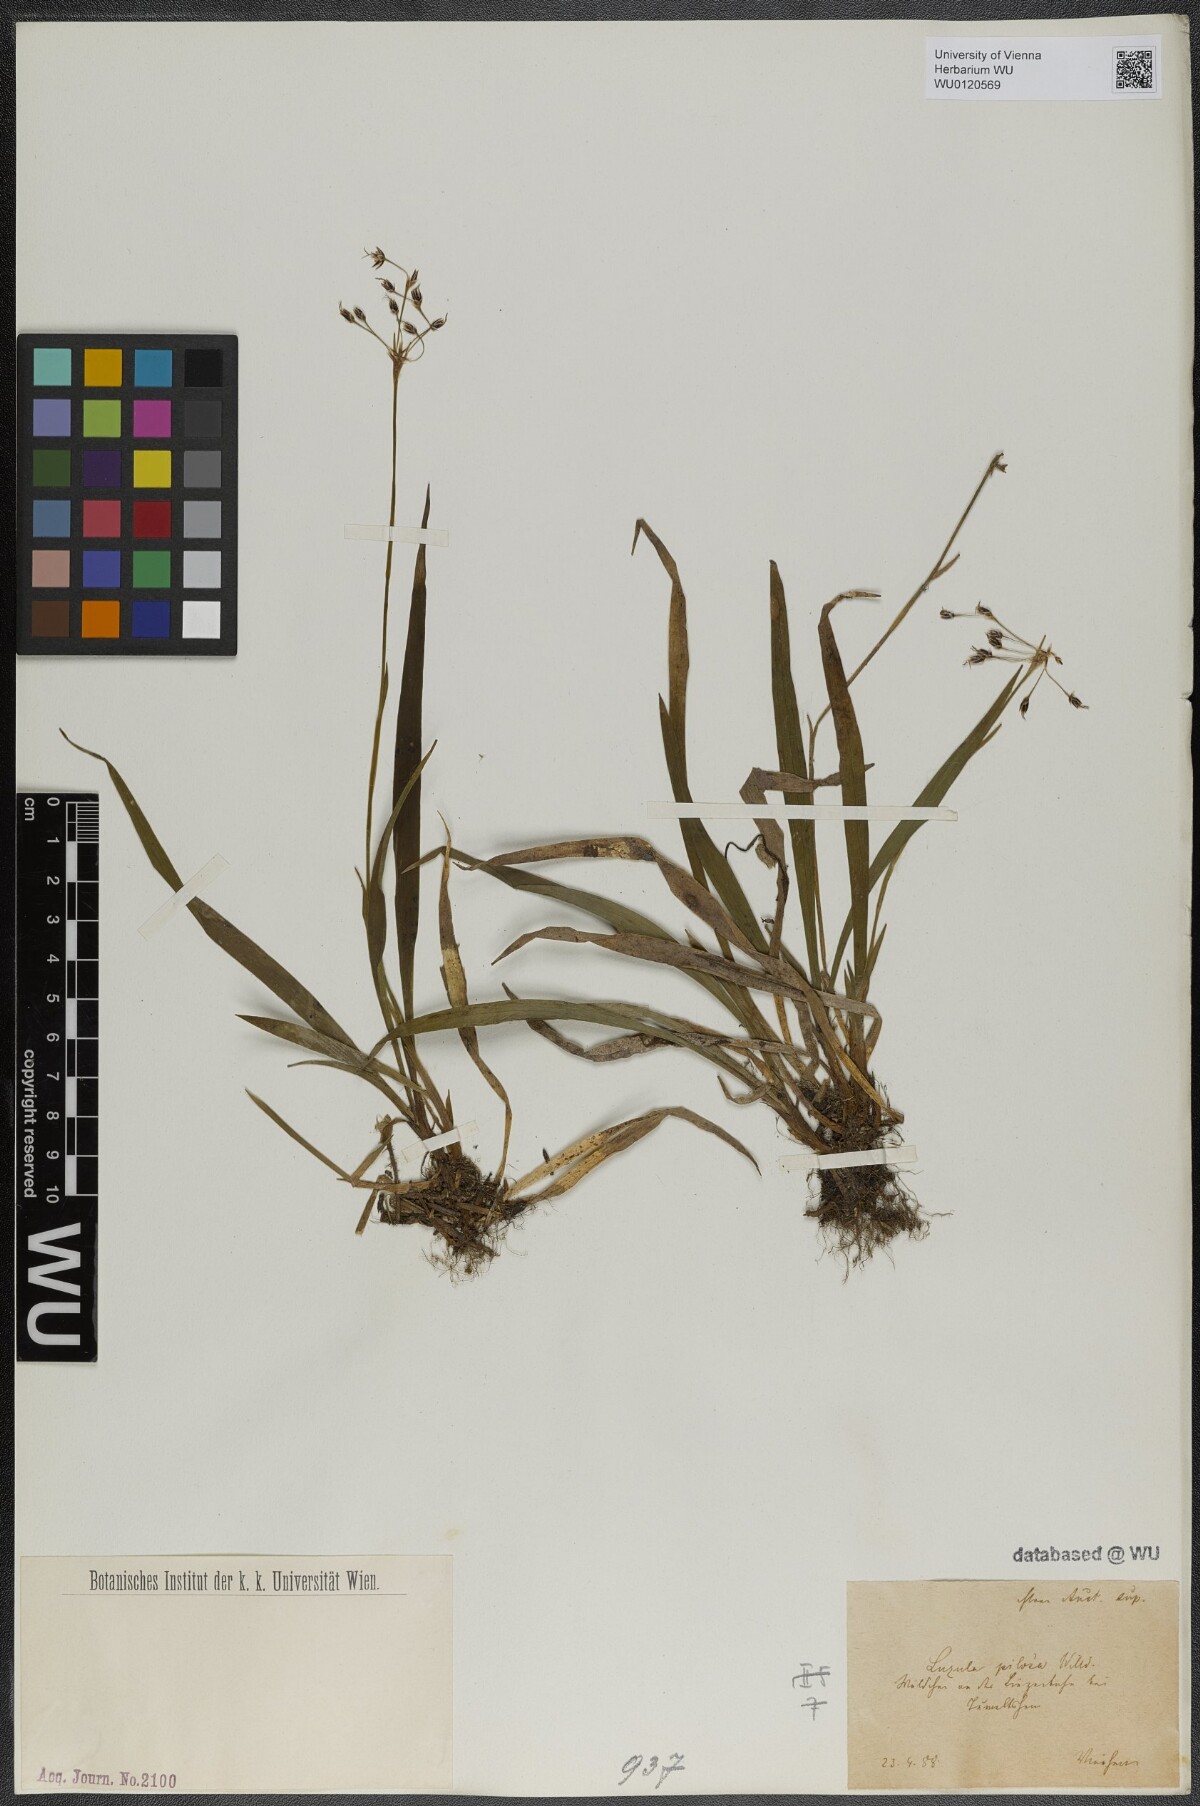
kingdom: Plantae
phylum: Tracheophyta
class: Liliopsida
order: Poales
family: Juncaceae
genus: Luzula
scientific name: Luzula pilosa
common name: Hairy wood-rush
